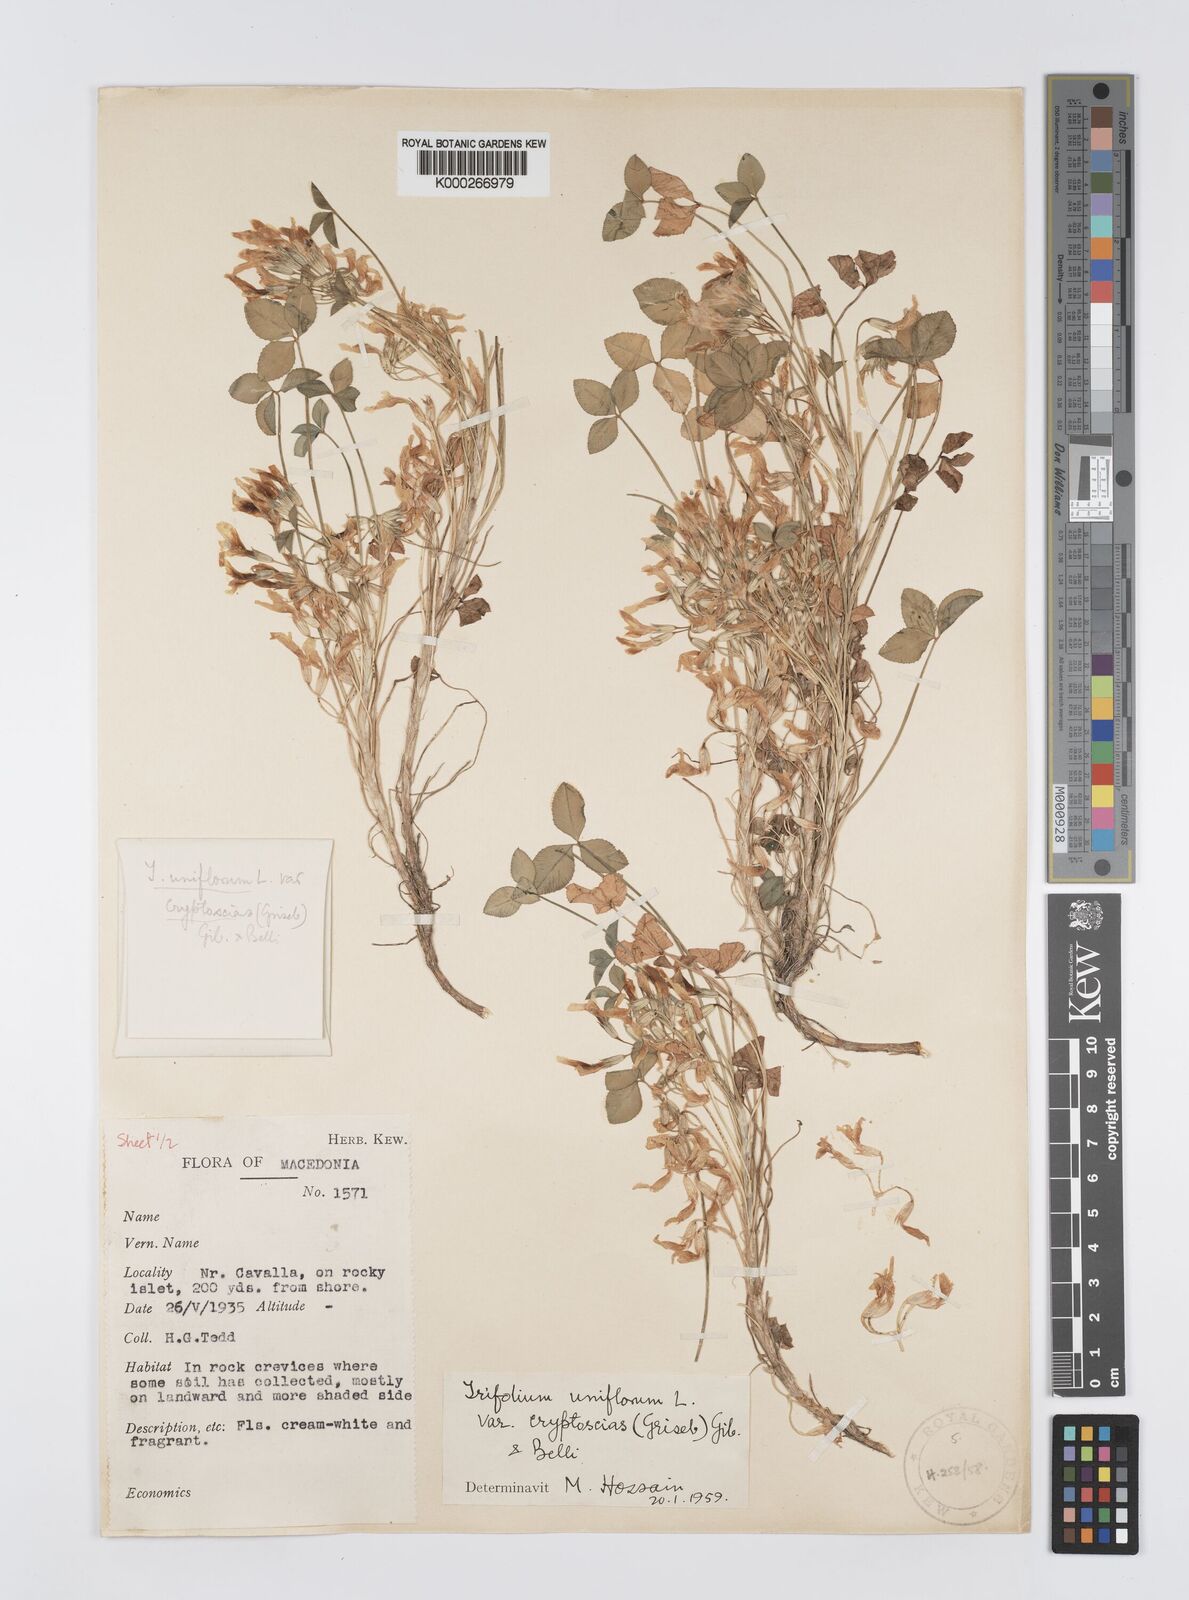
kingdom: Plantae
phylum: Tracheophyta
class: Magnoliopsida
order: Fabales
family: Fabaceae
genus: Trifolium
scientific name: Trifolium uniflorum
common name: One-flower clover
